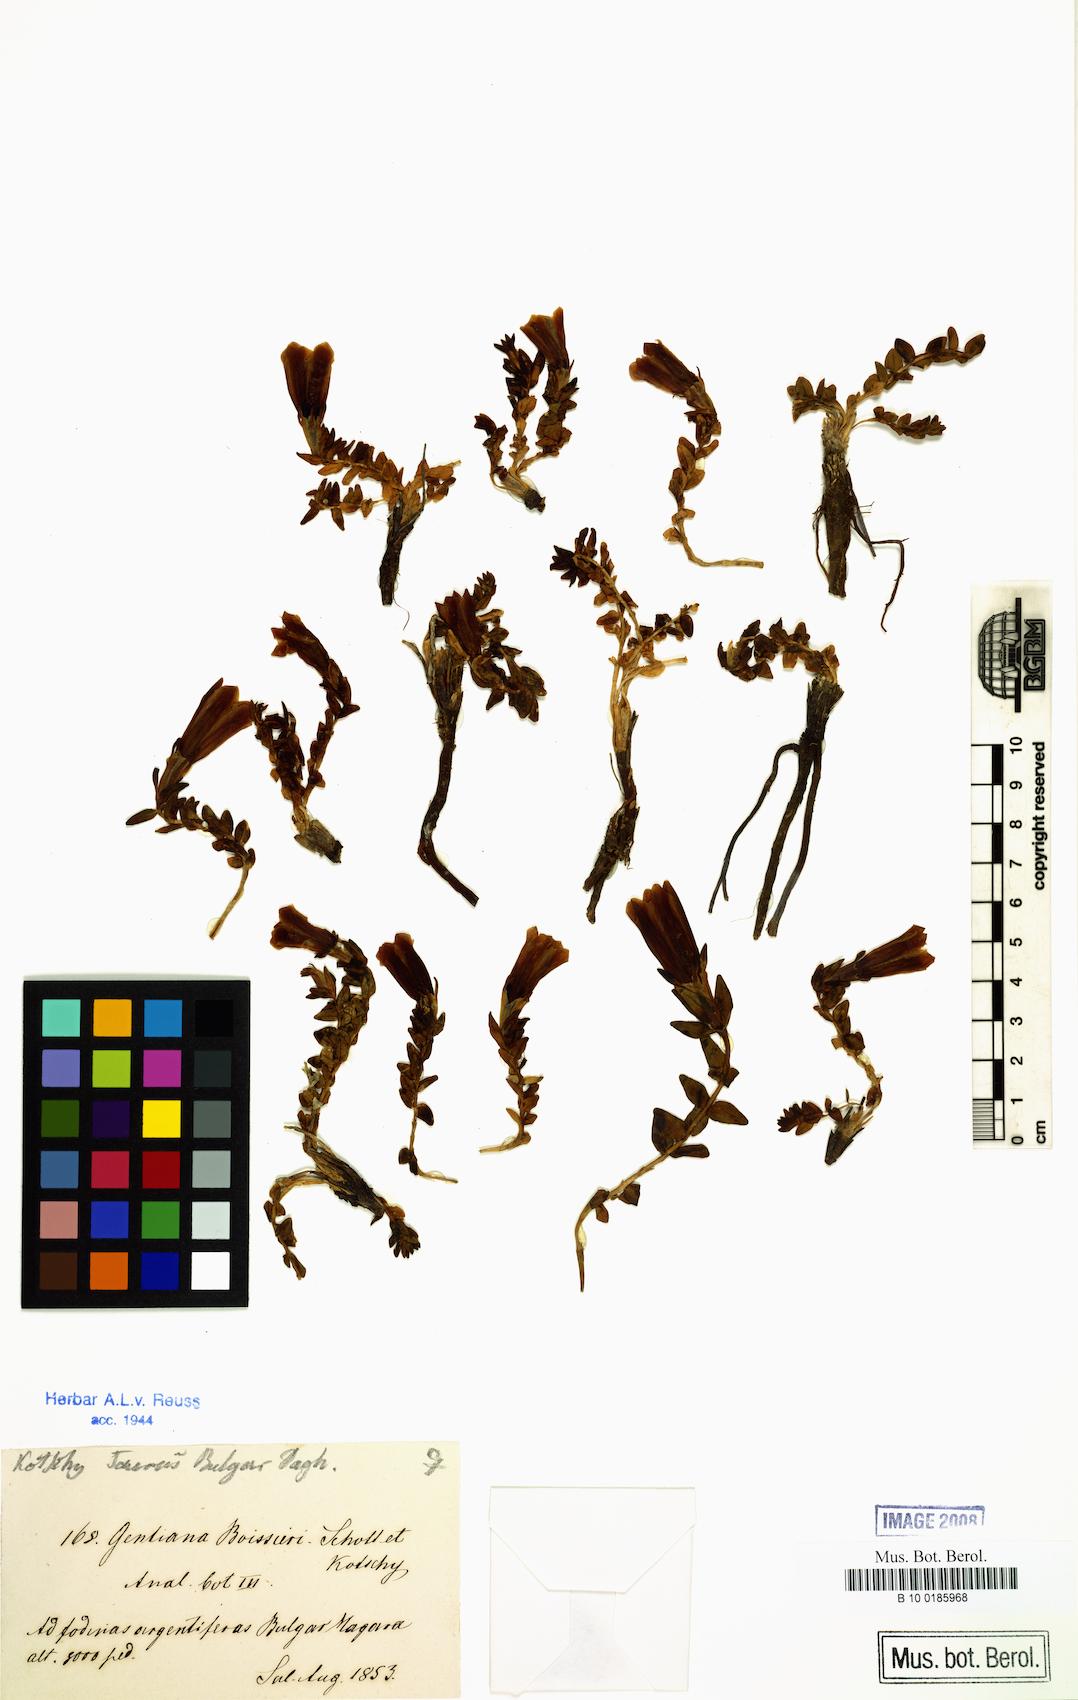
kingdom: Plantae
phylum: Tracheophyta
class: Magnoliopsida
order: Gentianales
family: Gentianaceae
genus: Gentiana
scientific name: Gentiana boissieri
